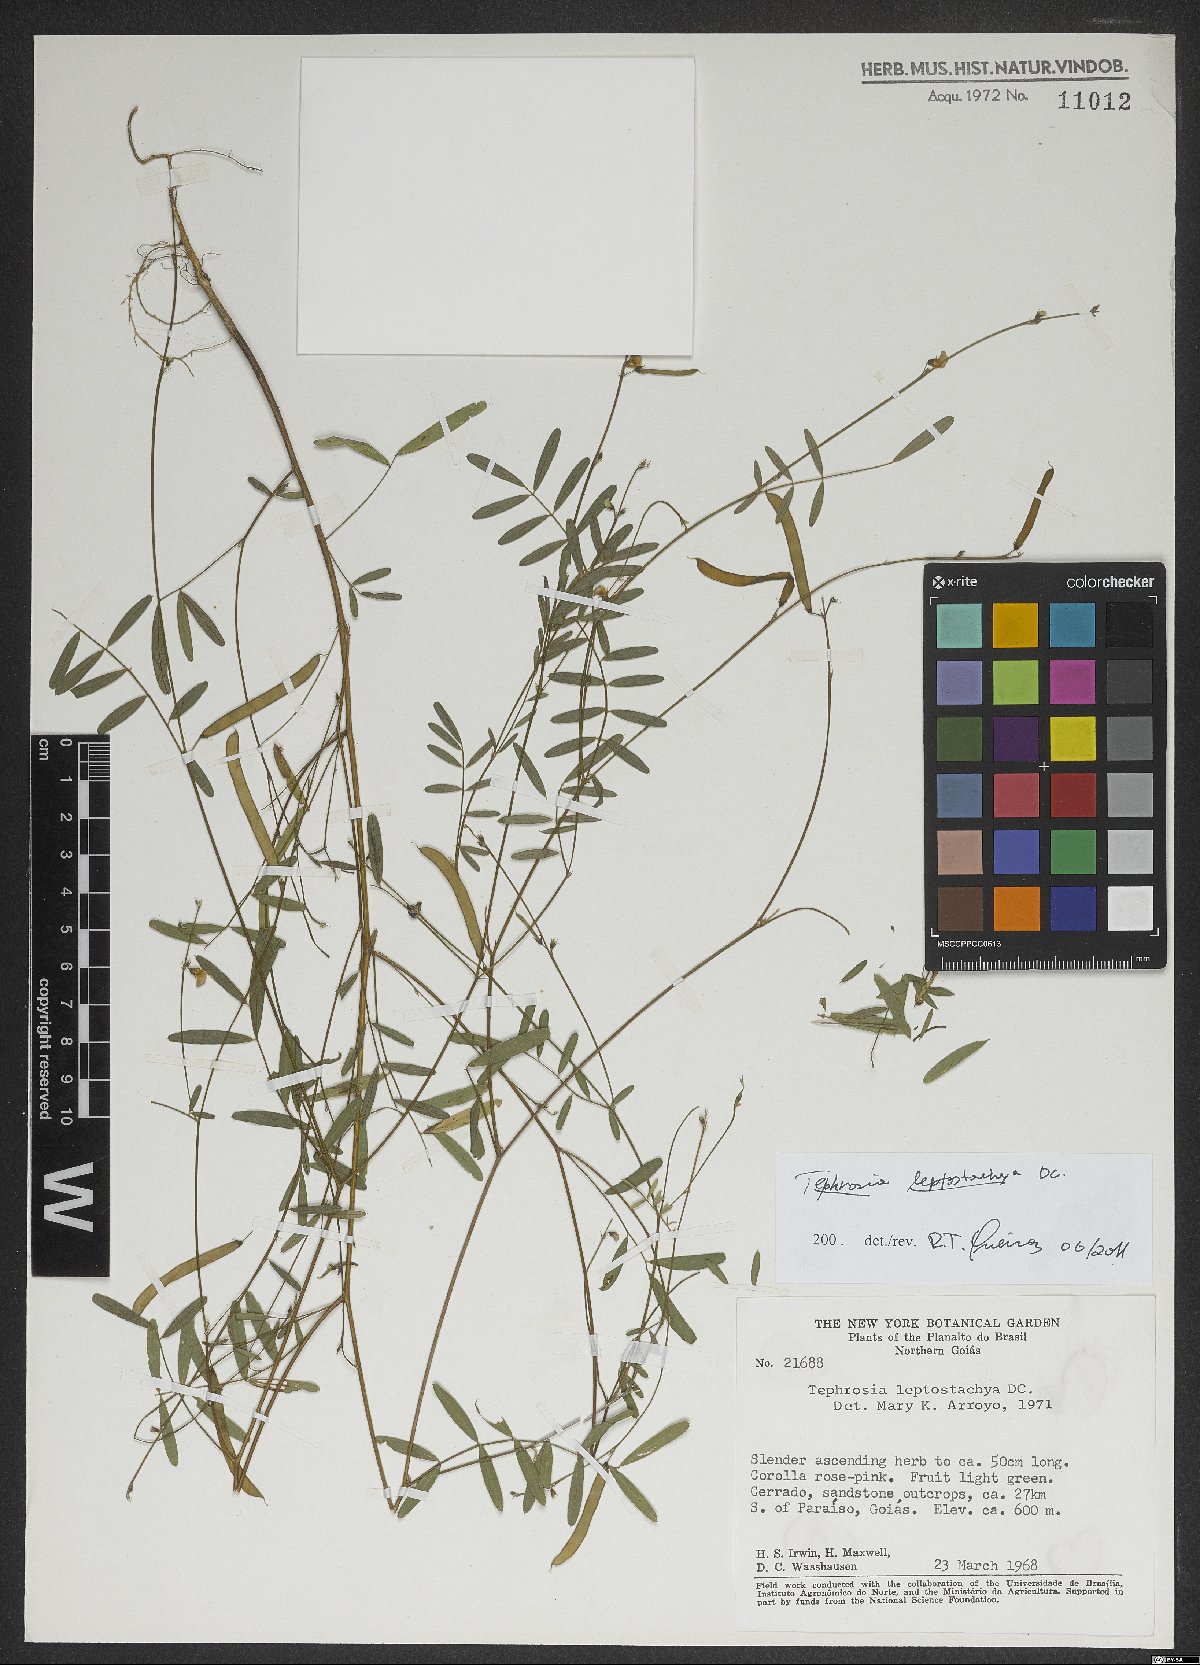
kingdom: Plantae
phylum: Tracheophyta
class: Magnoliopsida
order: Fabales
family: Fabaceae
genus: Tephrosia
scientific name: Tephrosia purpurea
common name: Fishpoison
